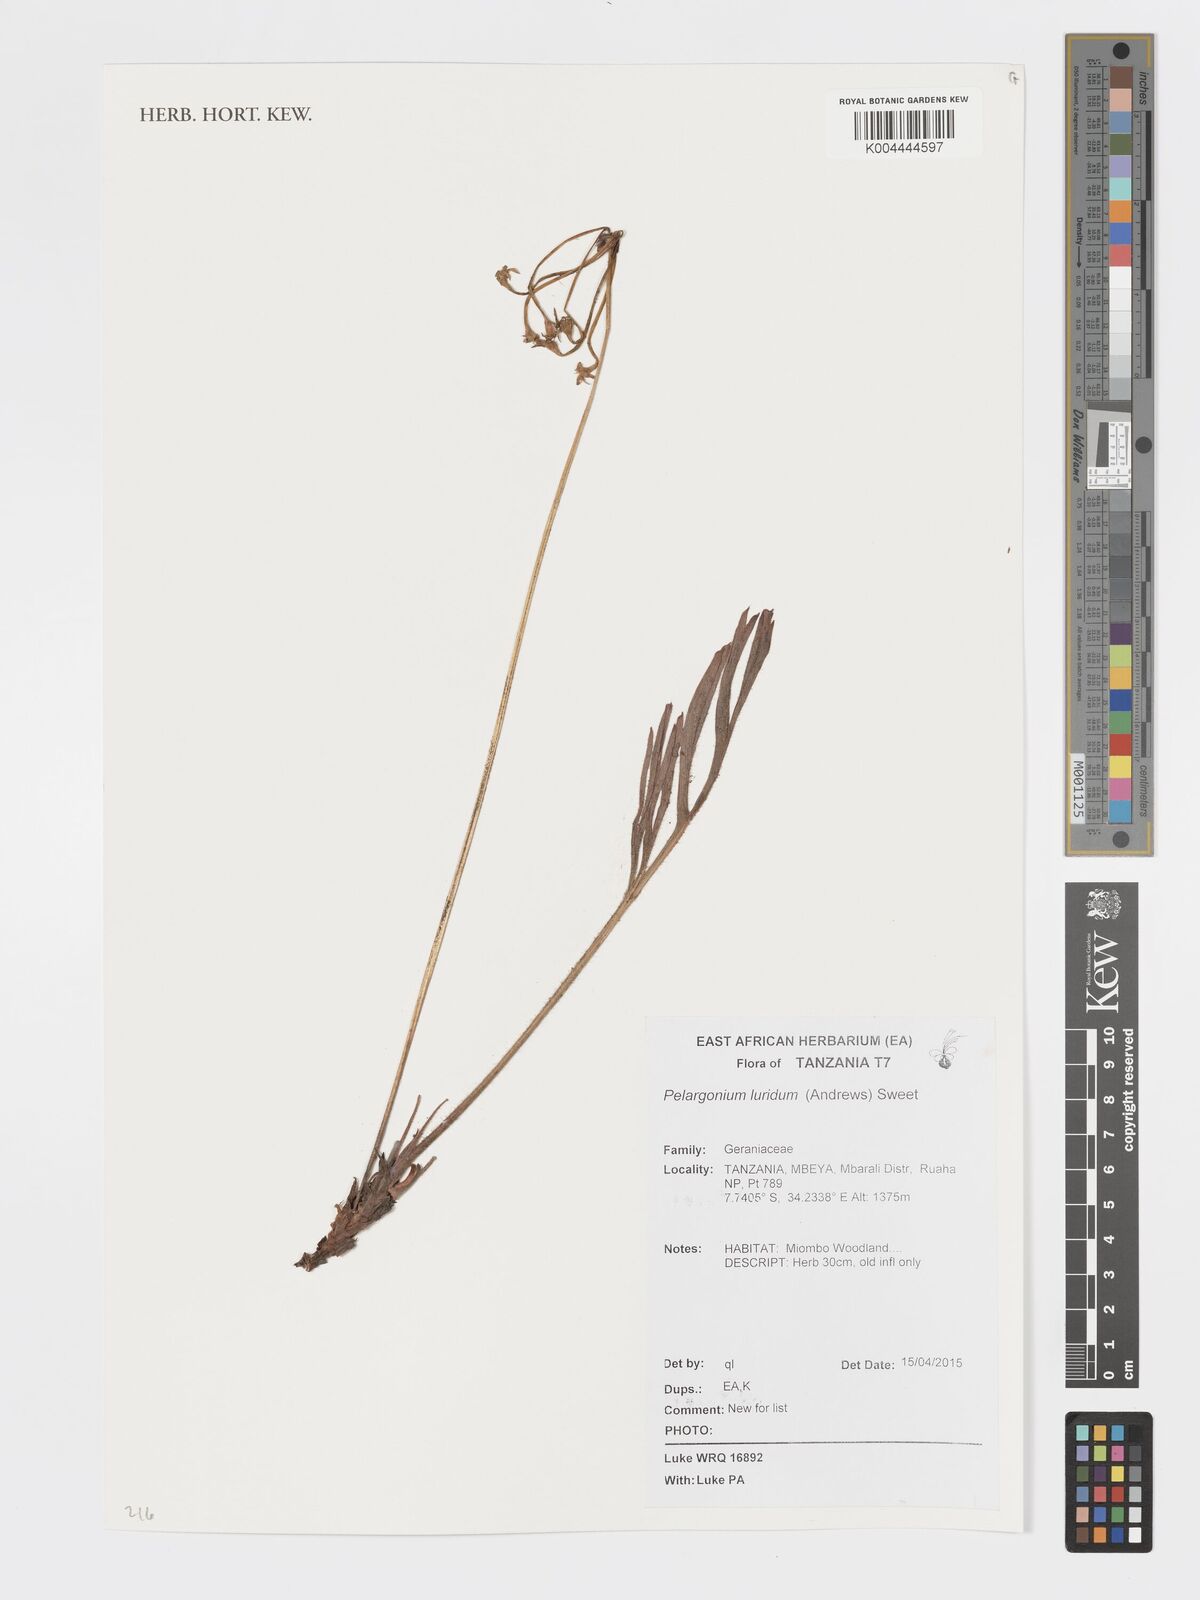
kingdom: Plantae
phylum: Tracheophyta
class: Magnoliopsida
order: Geraniales
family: Geraniaceae
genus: Pelargonium
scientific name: Pelargonium luridum
